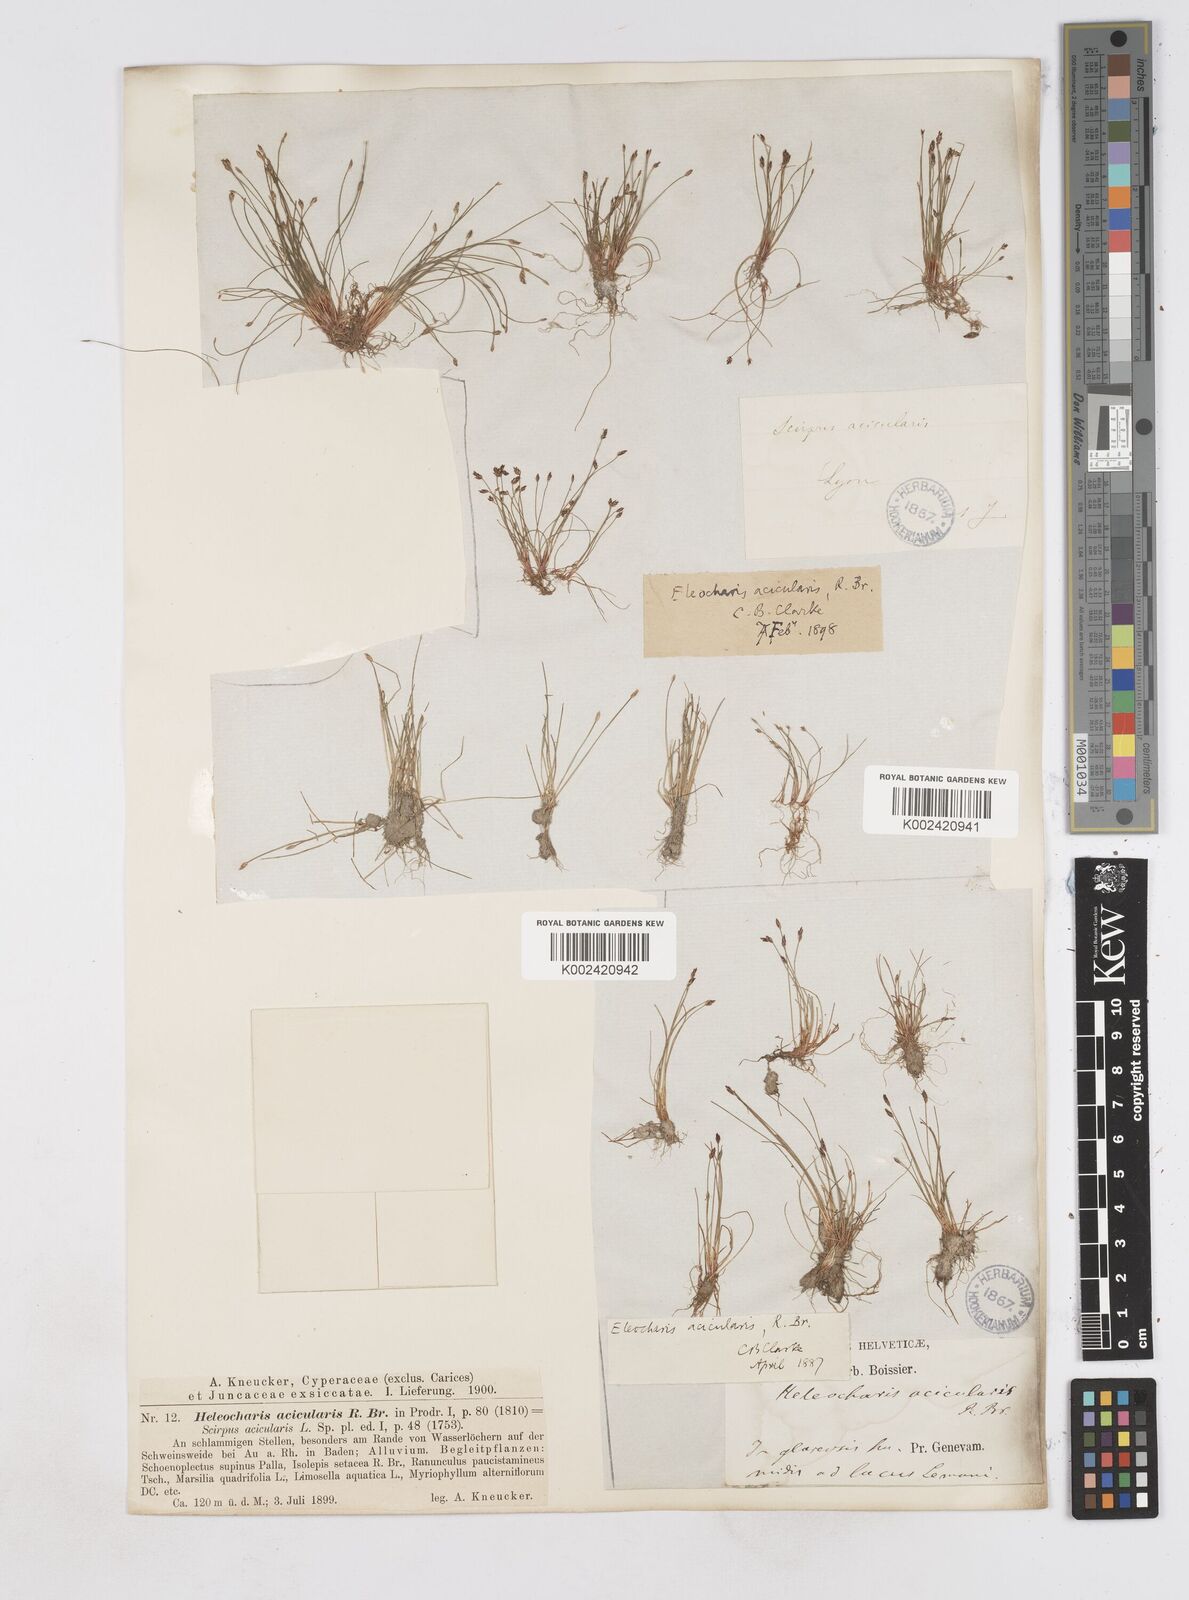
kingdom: Plantae
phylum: Tracheophyta
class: Liliopsida
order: Poales
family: Cyperaceae
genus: Eleocharis
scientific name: Eleocharis acicularis
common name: Needle spike-rush
